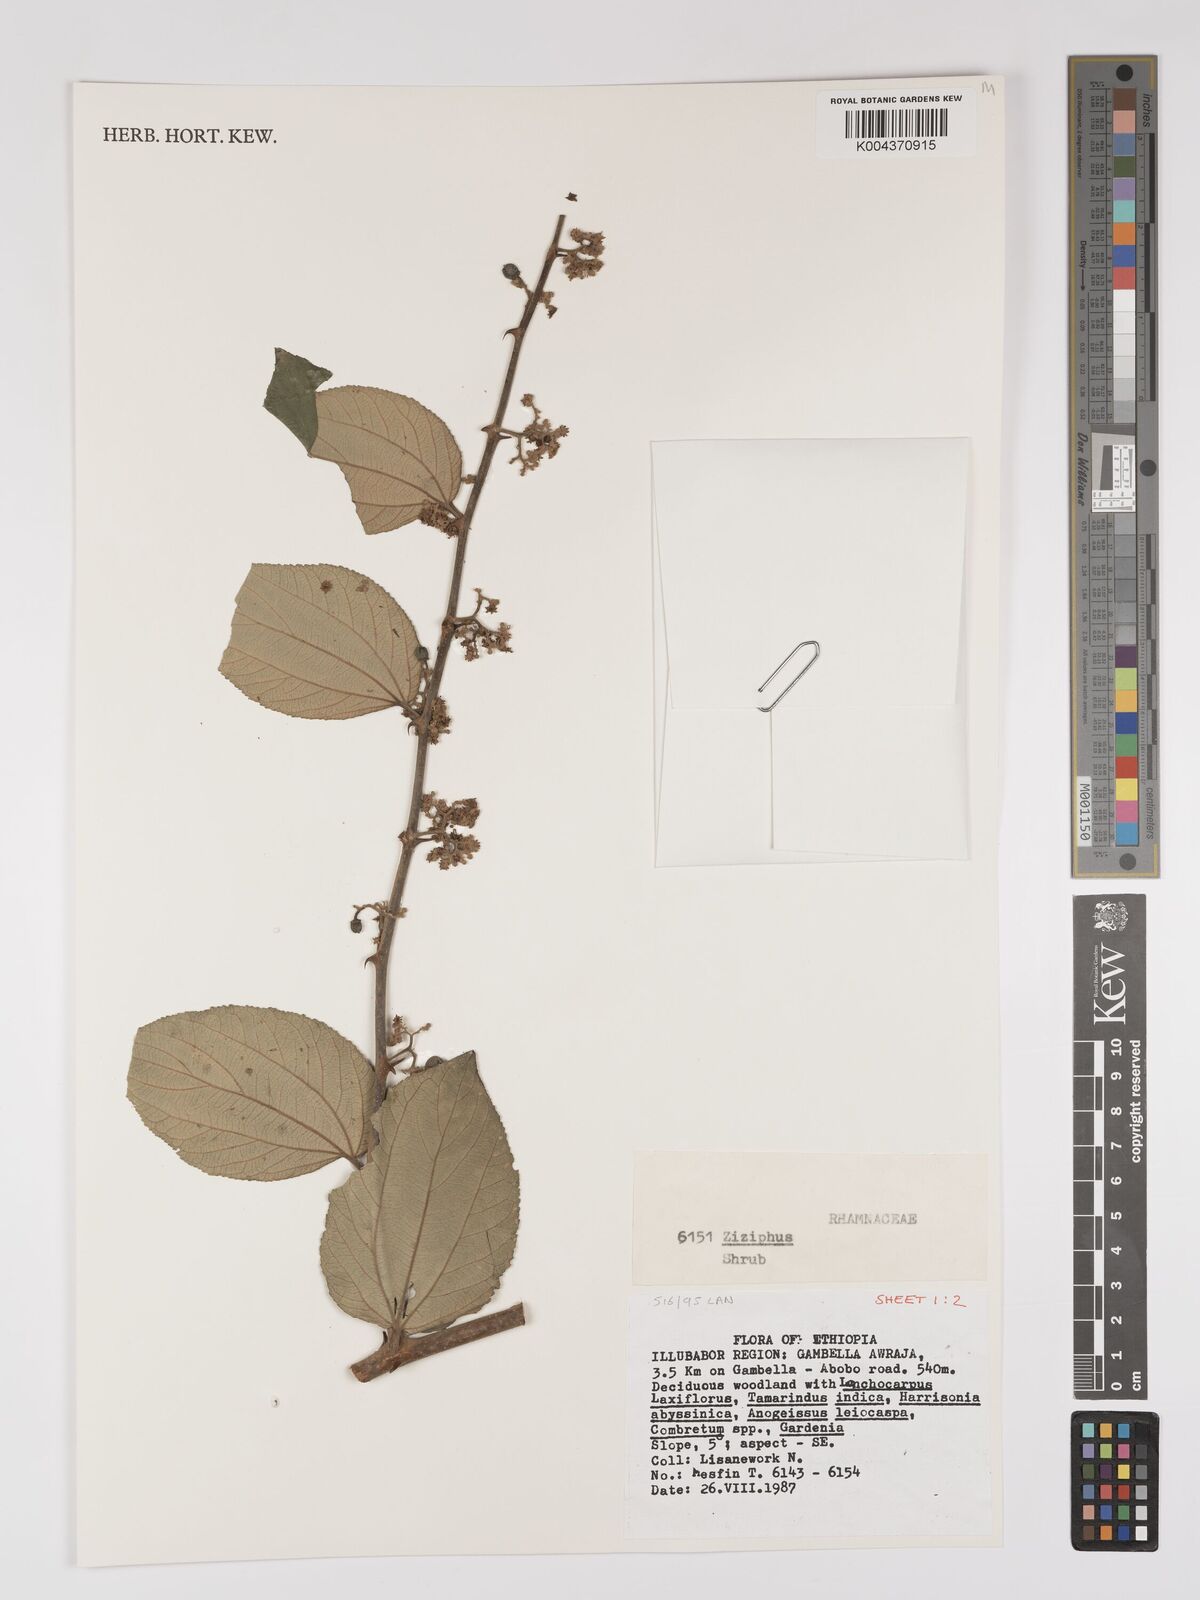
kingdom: Plantae
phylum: Tracheophyta
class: Magnoliopsida
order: Rosales
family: Rhamnaceae
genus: Ziziphus
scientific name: Ziziphus
